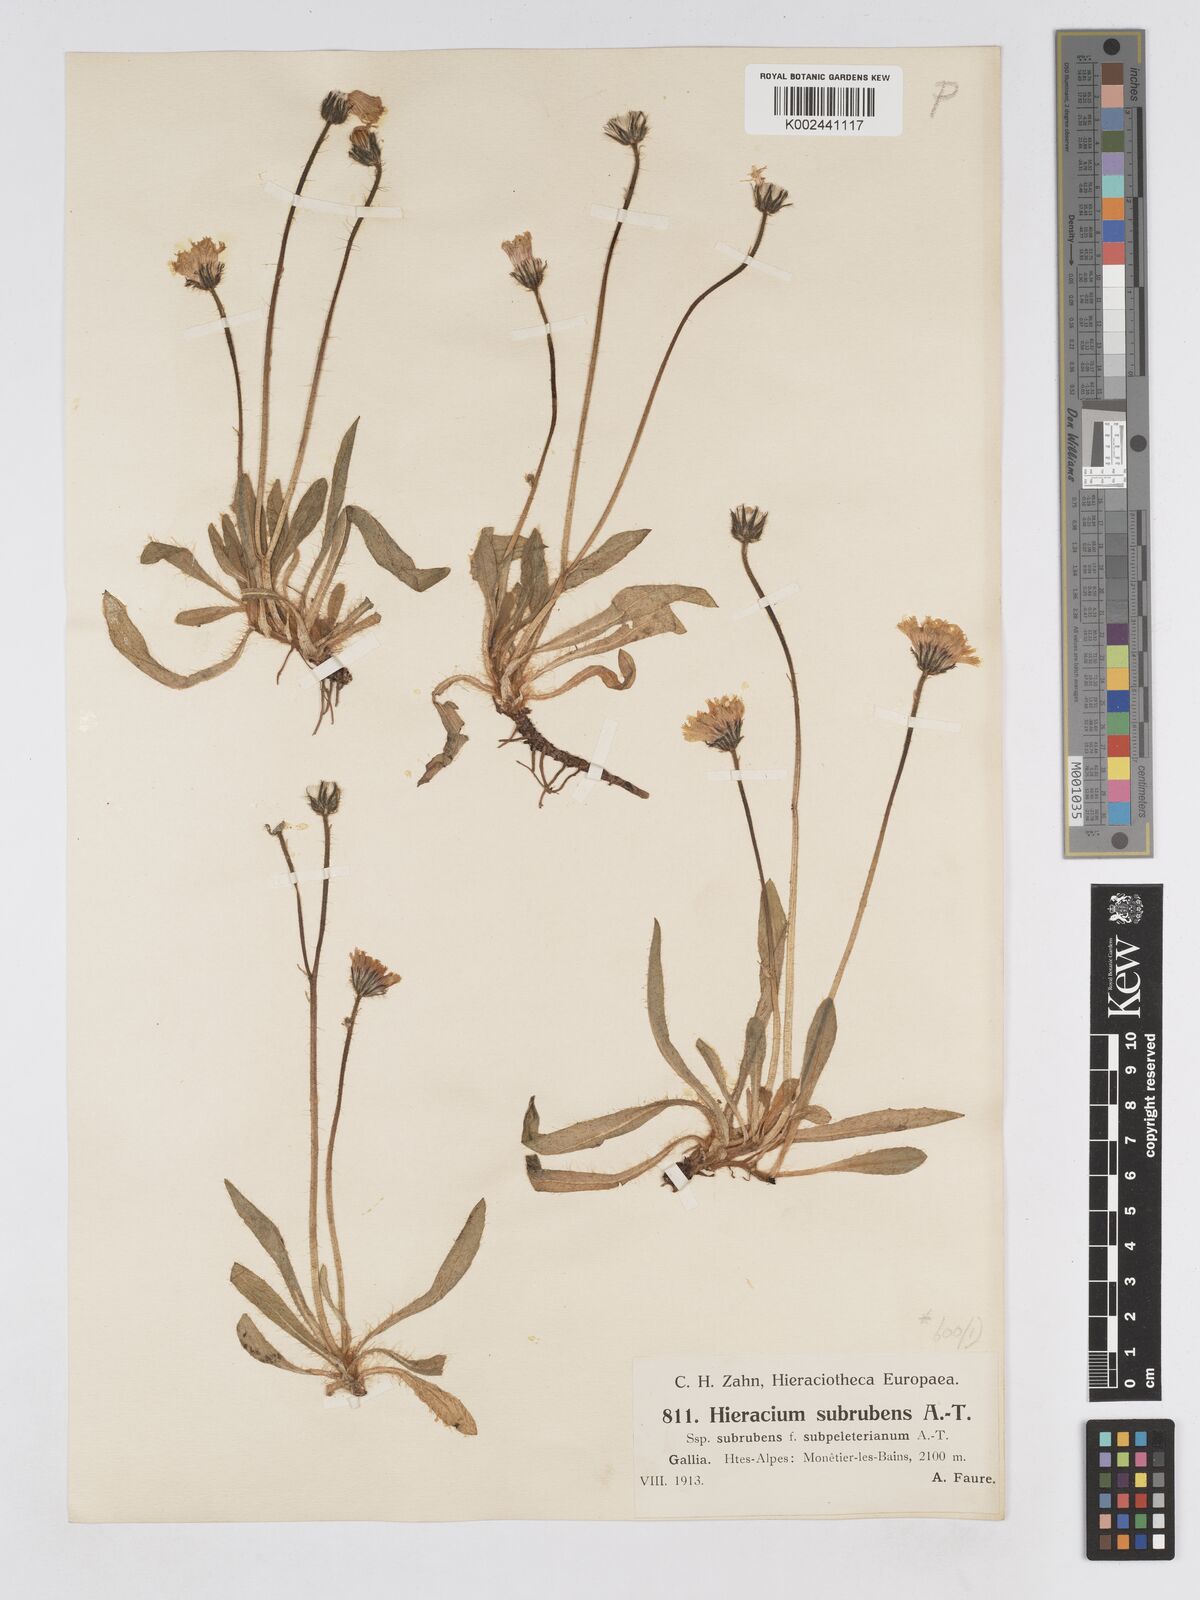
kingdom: Plantae
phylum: Tracheophyta
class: Magnoliopsida
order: Asterales
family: Asteraceae
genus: Pilosella
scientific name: Pilosella subrubens
